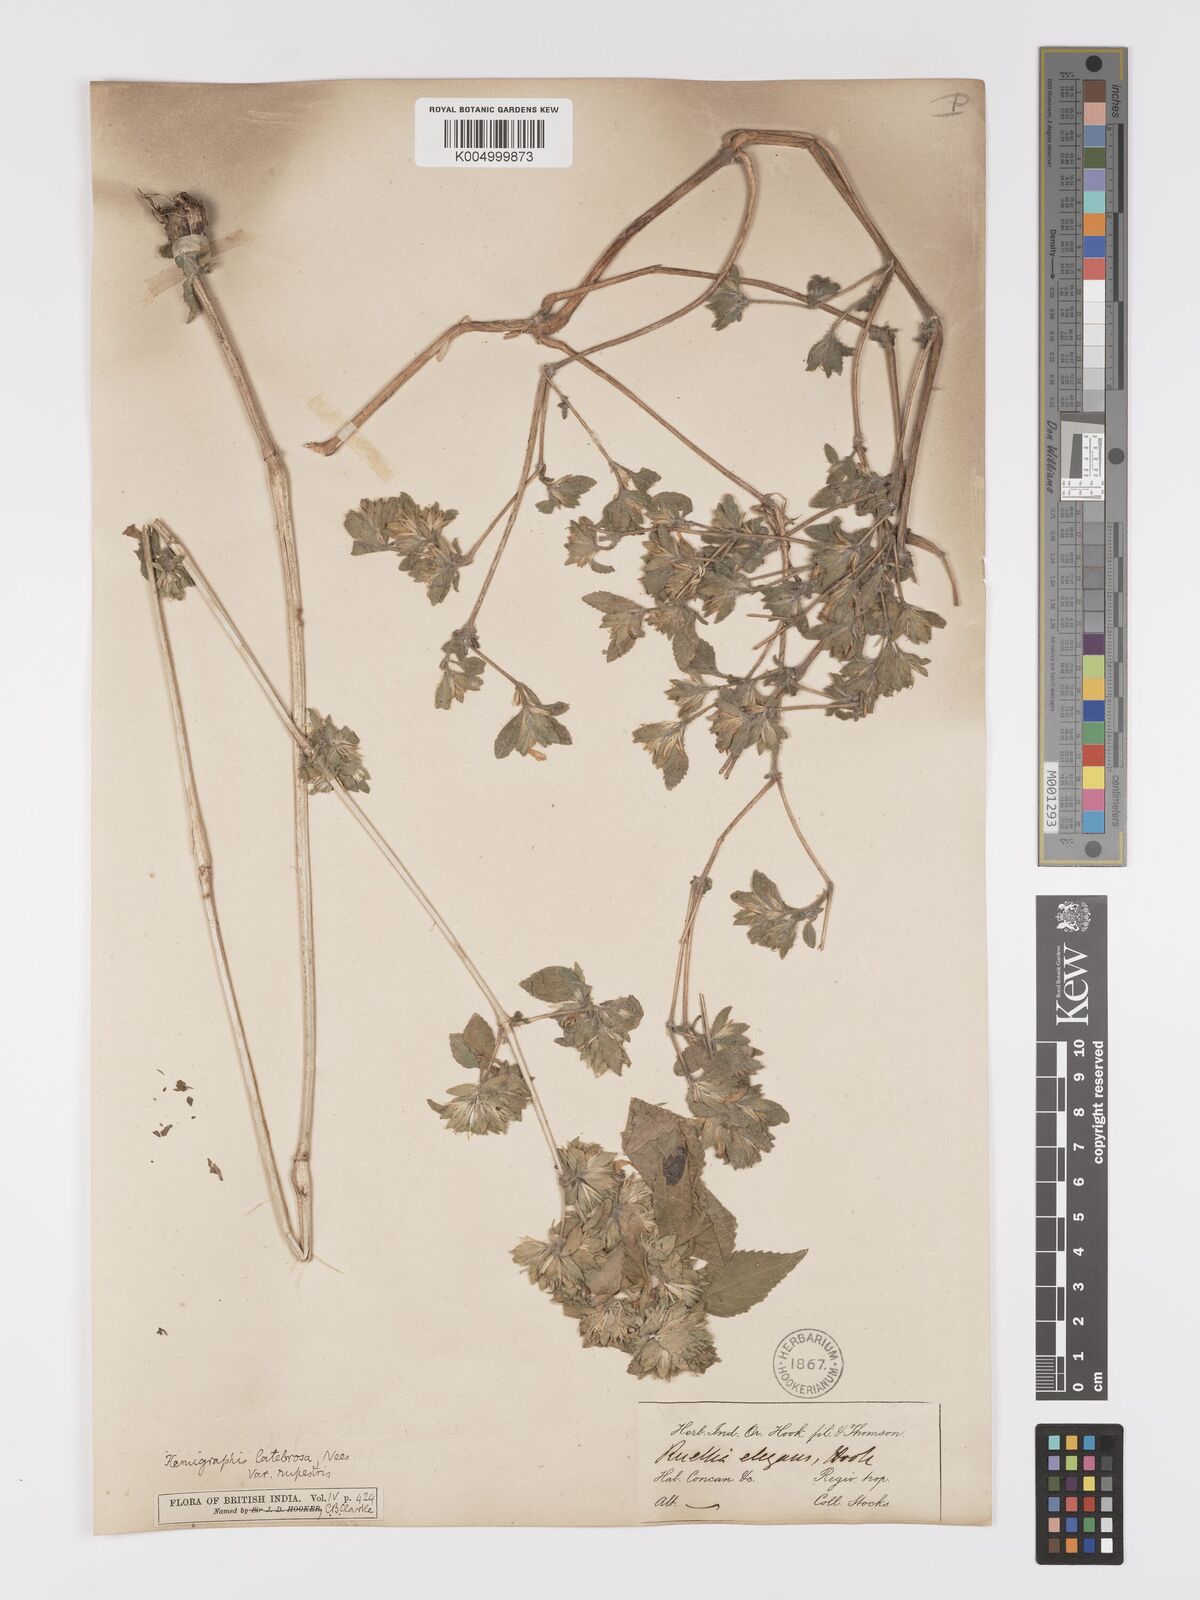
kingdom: Plantae
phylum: Tracheophyta
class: Magnoliopsida
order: Lamiales
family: Acanthaceae
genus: Strobilanthes
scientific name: Strobilanthes pavala
